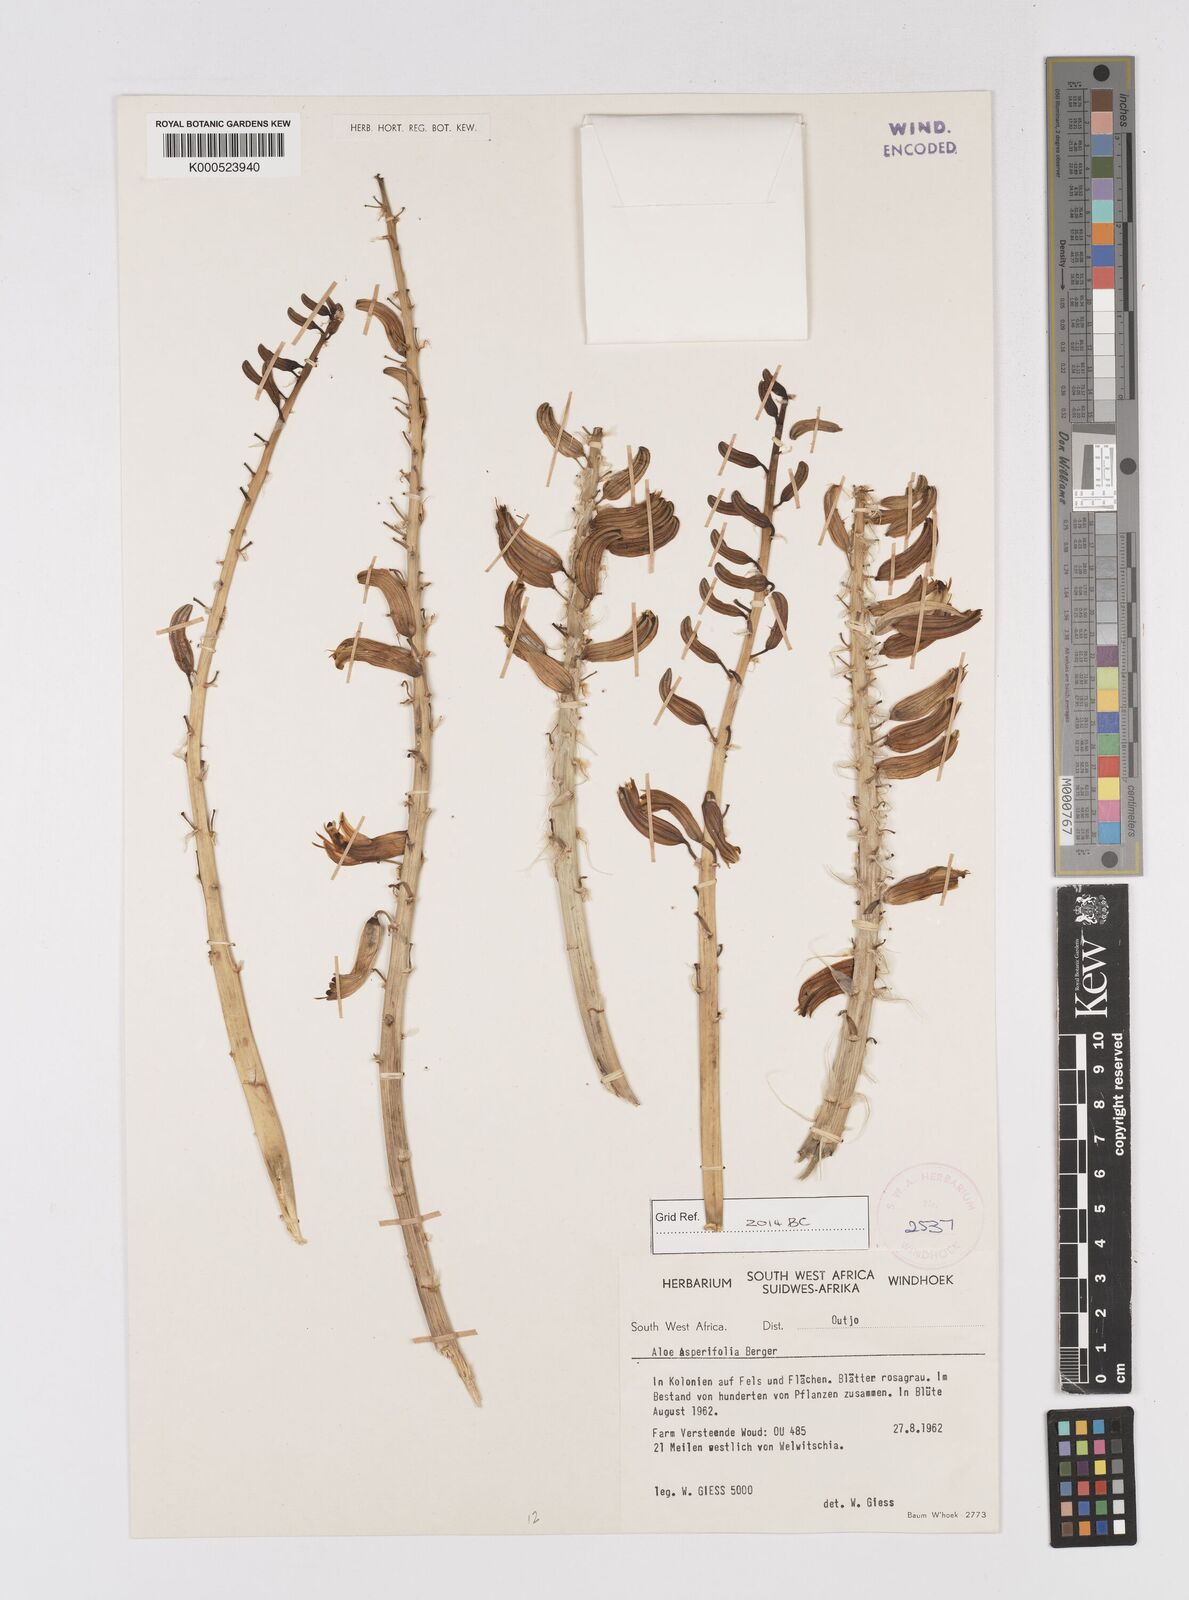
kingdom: Plantae
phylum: Tracheophyta
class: Liliopsida
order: Asparagales
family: Asphodelaceae
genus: Aloe
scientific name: Aloe asperifolia
